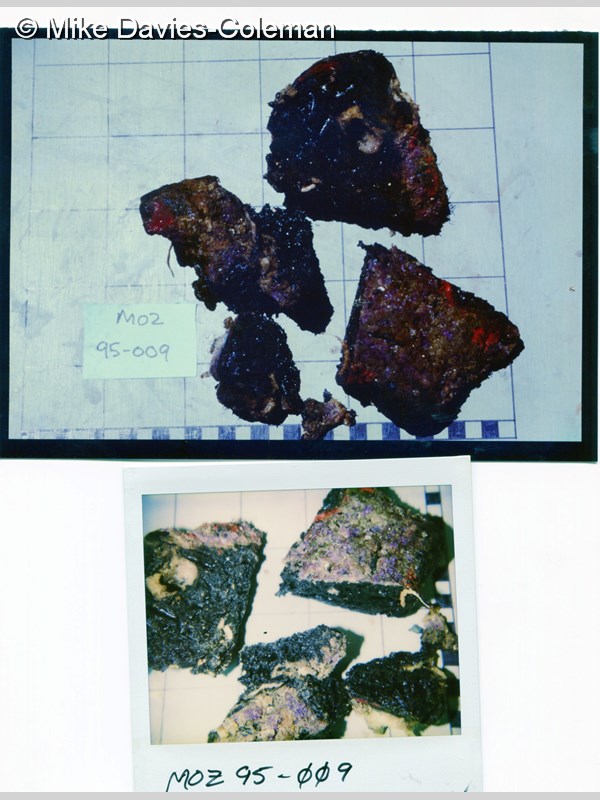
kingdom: Animalia
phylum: Porifera
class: Demospongiae
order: Tetractinellida
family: Geodiidae
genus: Melophlus
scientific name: Melophlus
